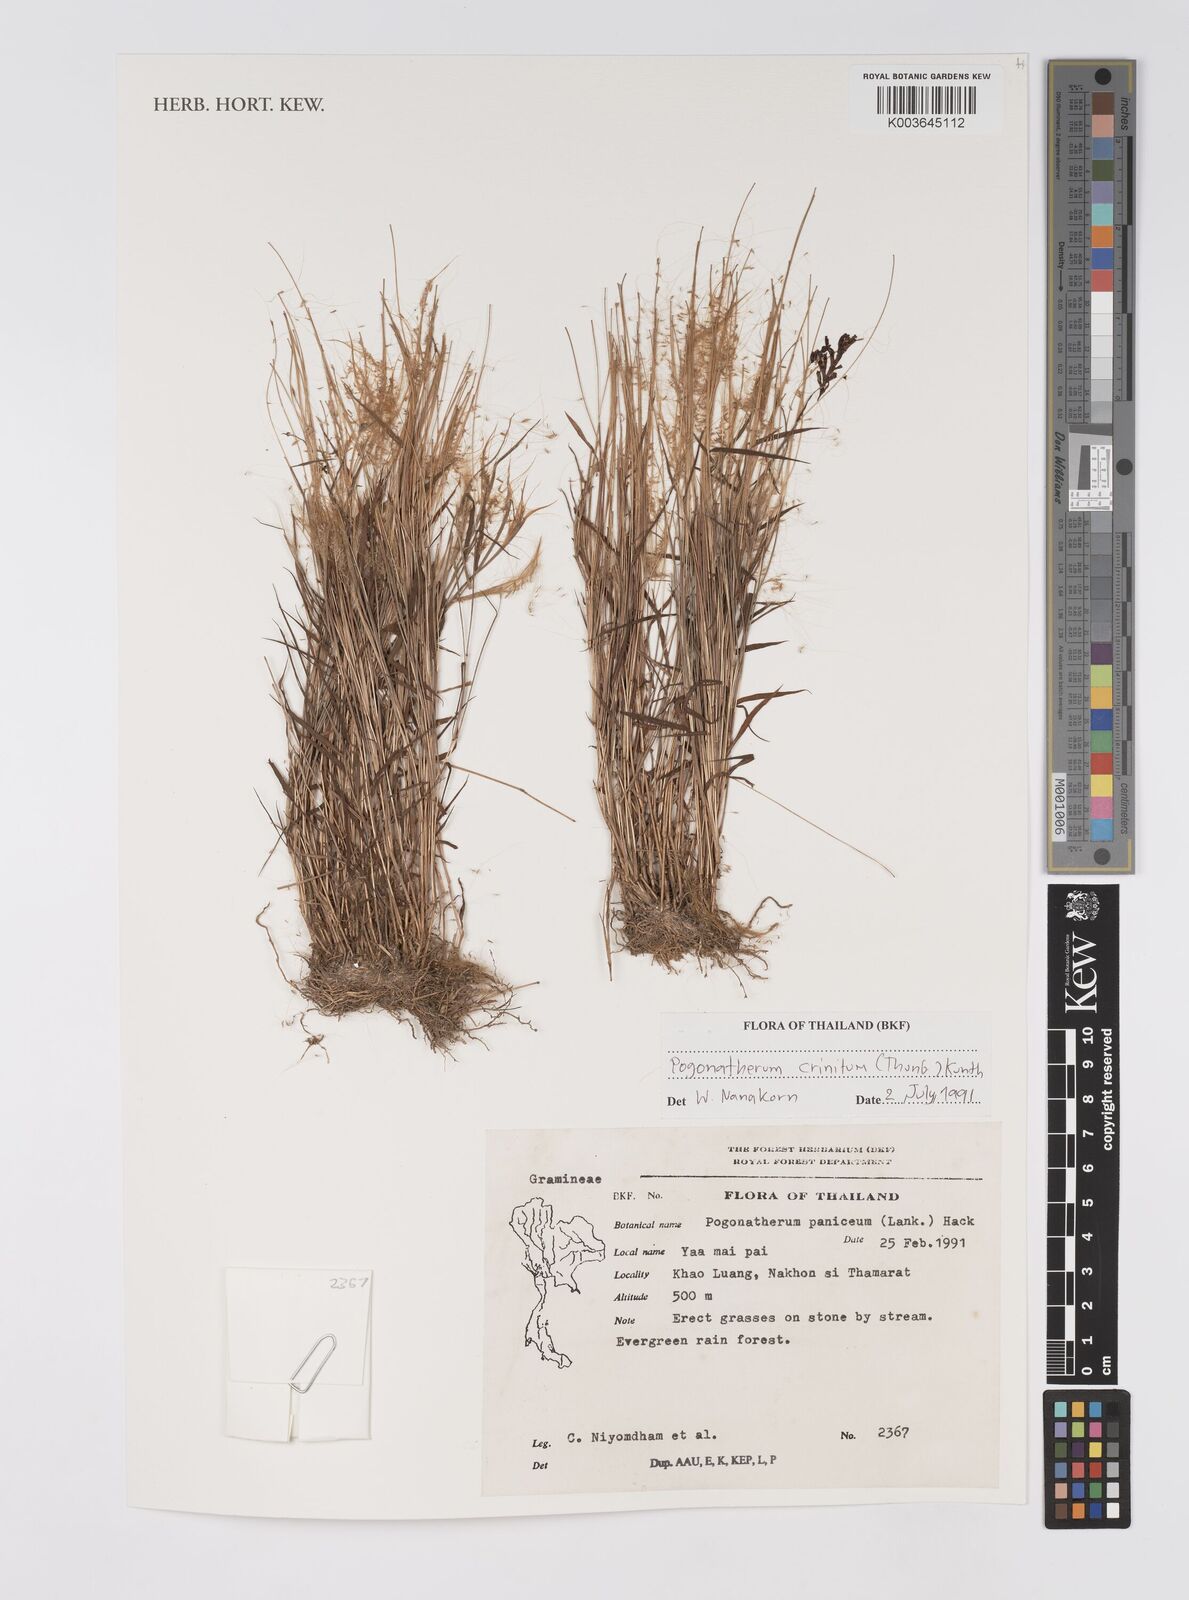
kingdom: Plantae
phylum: Tracheophyta
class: Liliopsida
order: Poales
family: Poaceae
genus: Pogonatherum
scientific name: Pogonatherum paniceum
